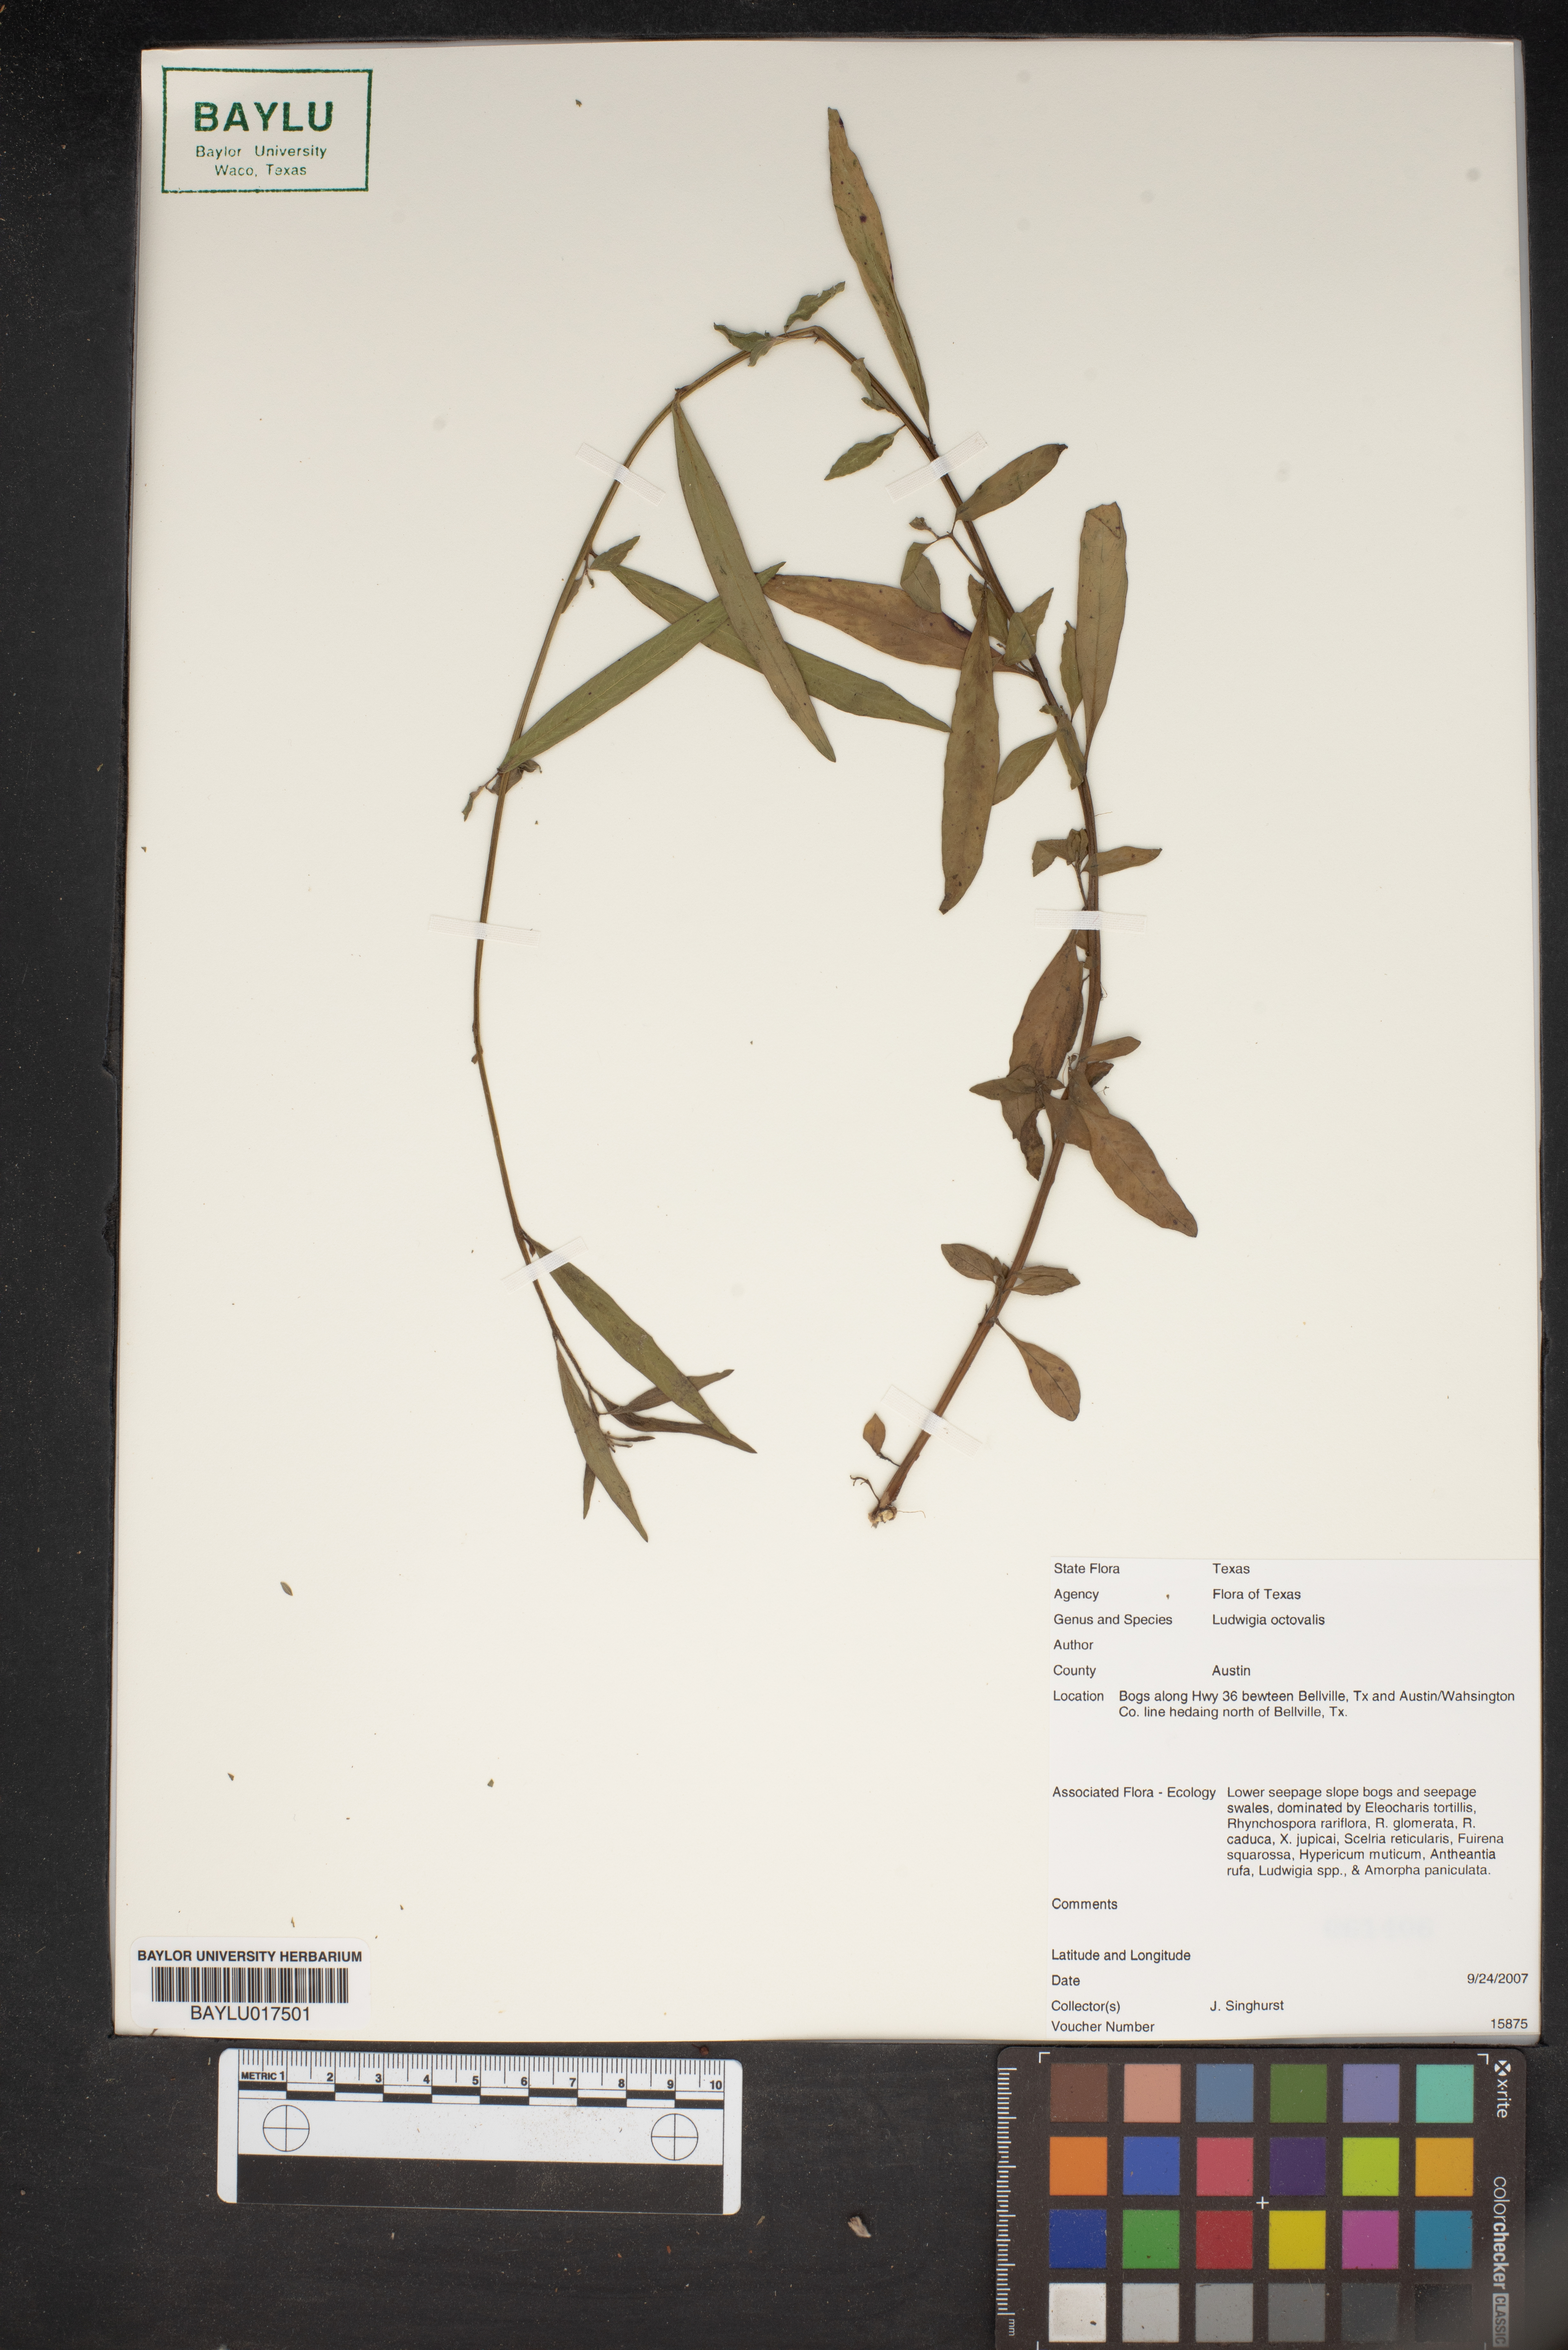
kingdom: Plantae
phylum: Tracheophyta
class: Magnoliopsida
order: Myrtales
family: Onagraceae
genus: Ludwigia
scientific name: Ludwigia octovalvis
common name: Water-primrose
